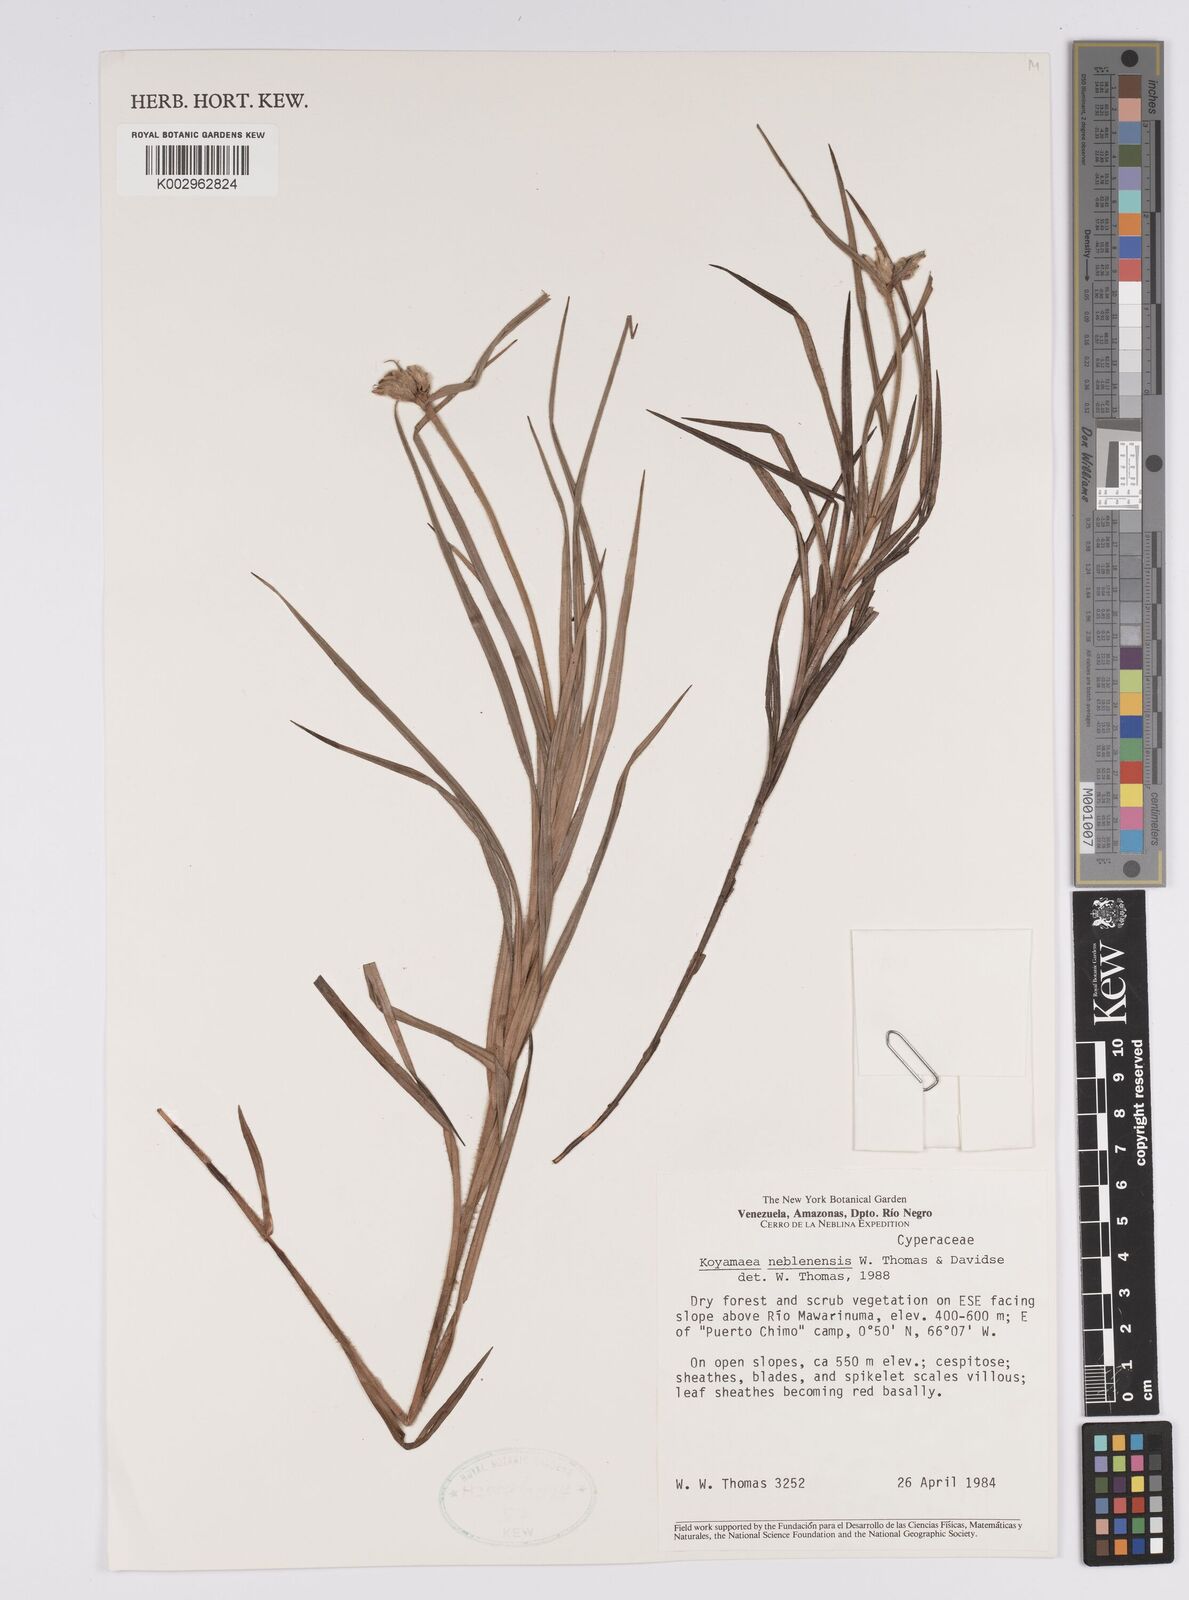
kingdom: Plantae
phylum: Tracheophyta
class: Liliopsida
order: Poales
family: Cyperaceae
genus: Koyamaea
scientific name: Koyamaea neblinensis
